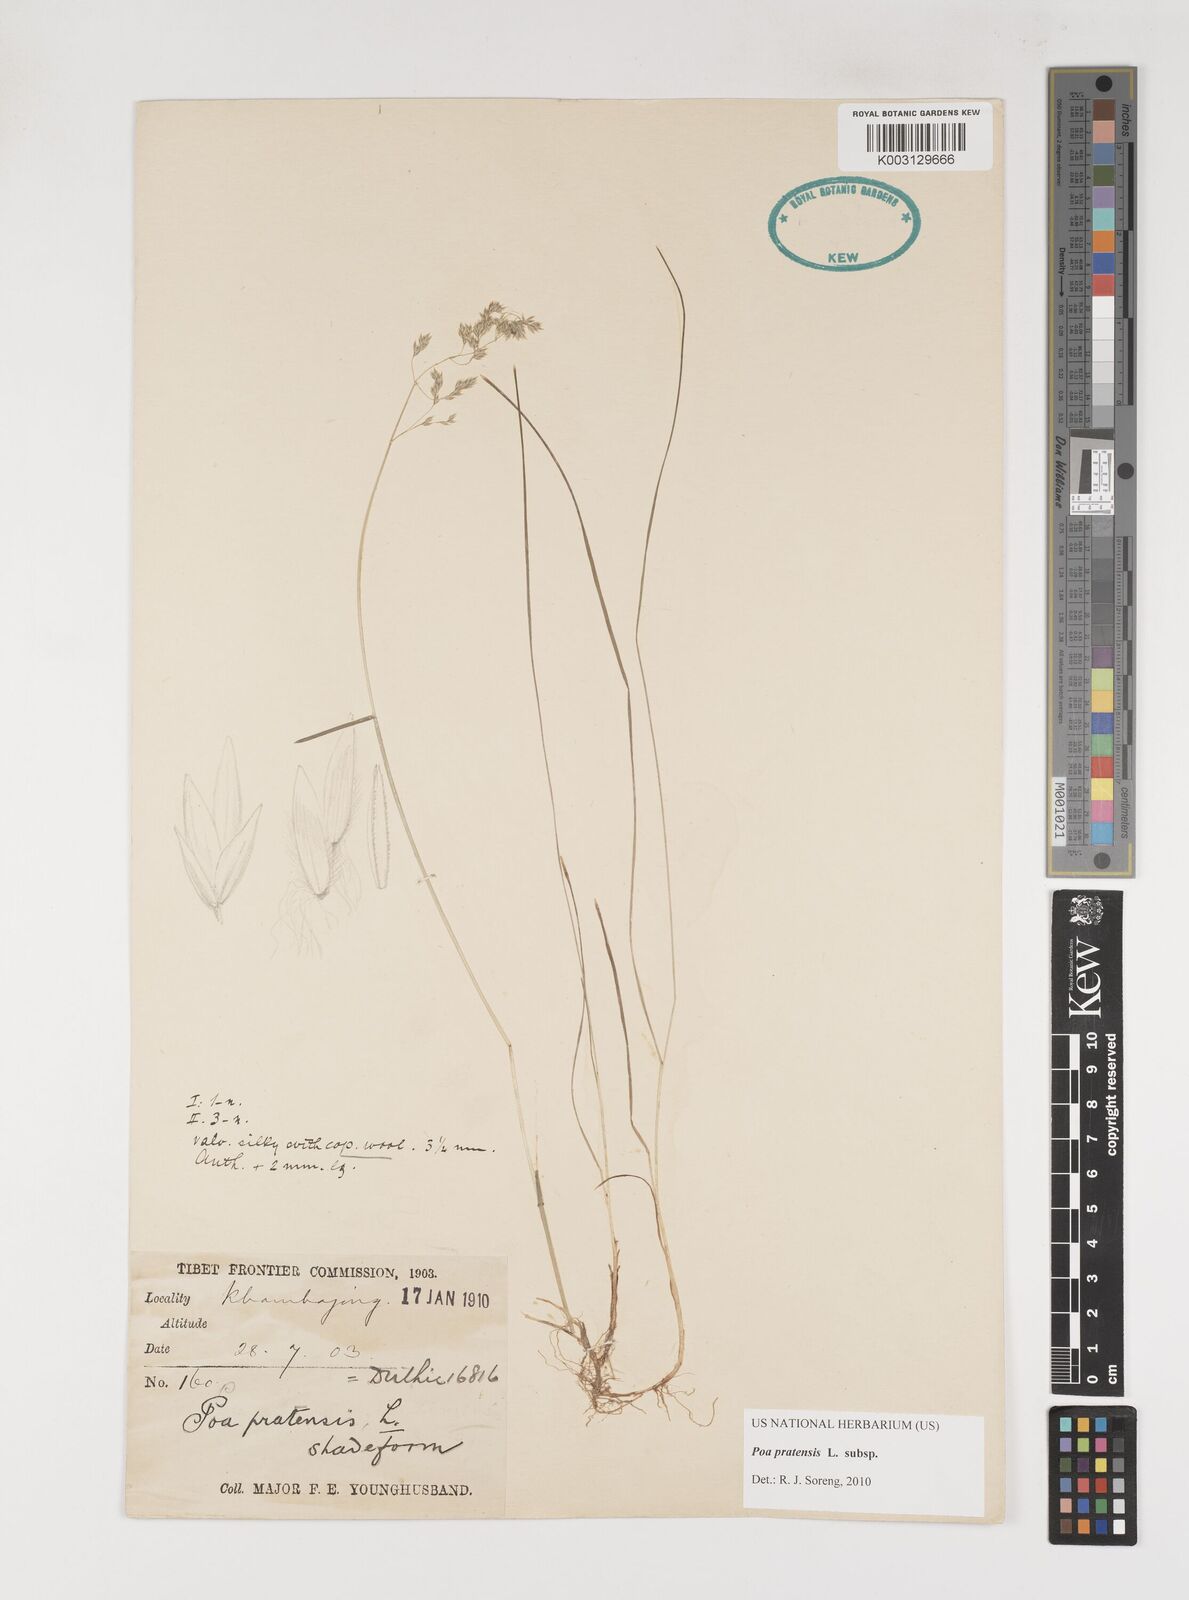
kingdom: Plantae
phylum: Tracheophyta
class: Liliopsida
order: Poales
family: Poaceae
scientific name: Poaceae
